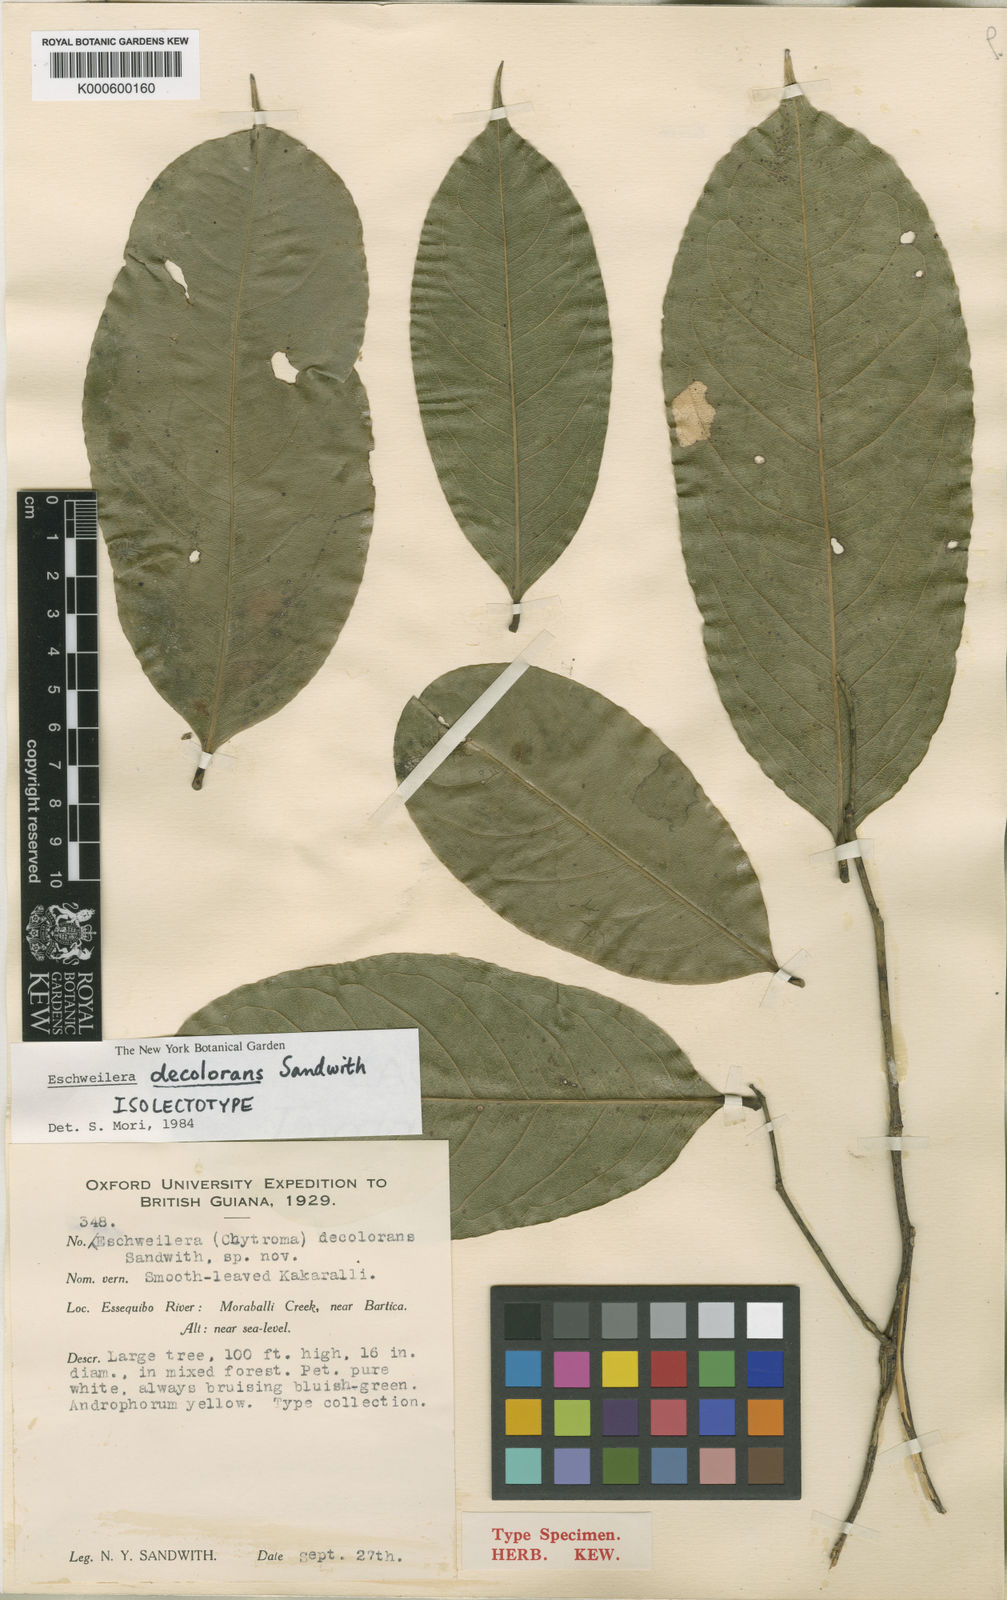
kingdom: Plantae
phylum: Tracheophyta
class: Magnoliopsida
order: Ericales
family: Lecythidaceae
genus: Eschweilera
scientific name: Eschweilera decolorans
